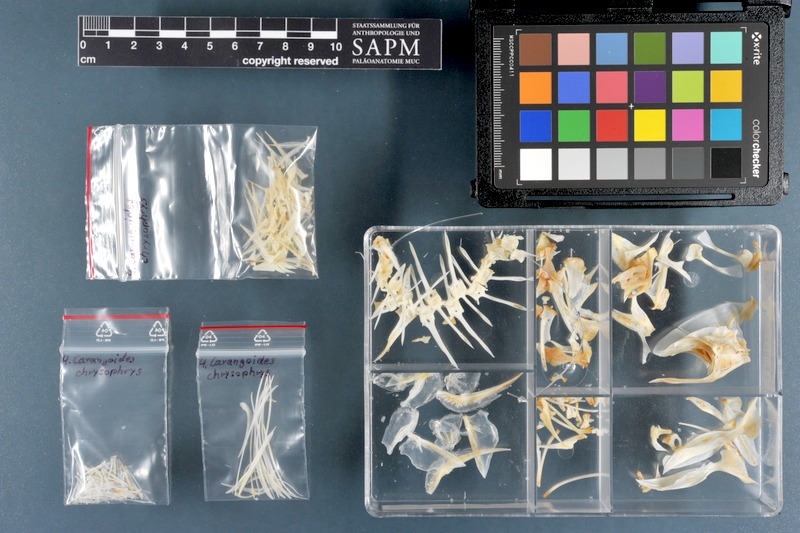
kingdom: Animalia
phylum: Chordata
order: Perciformes
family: Carangidae
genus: Carangoides
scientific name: Carangoides chrysophrys
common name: Longnose trevally
